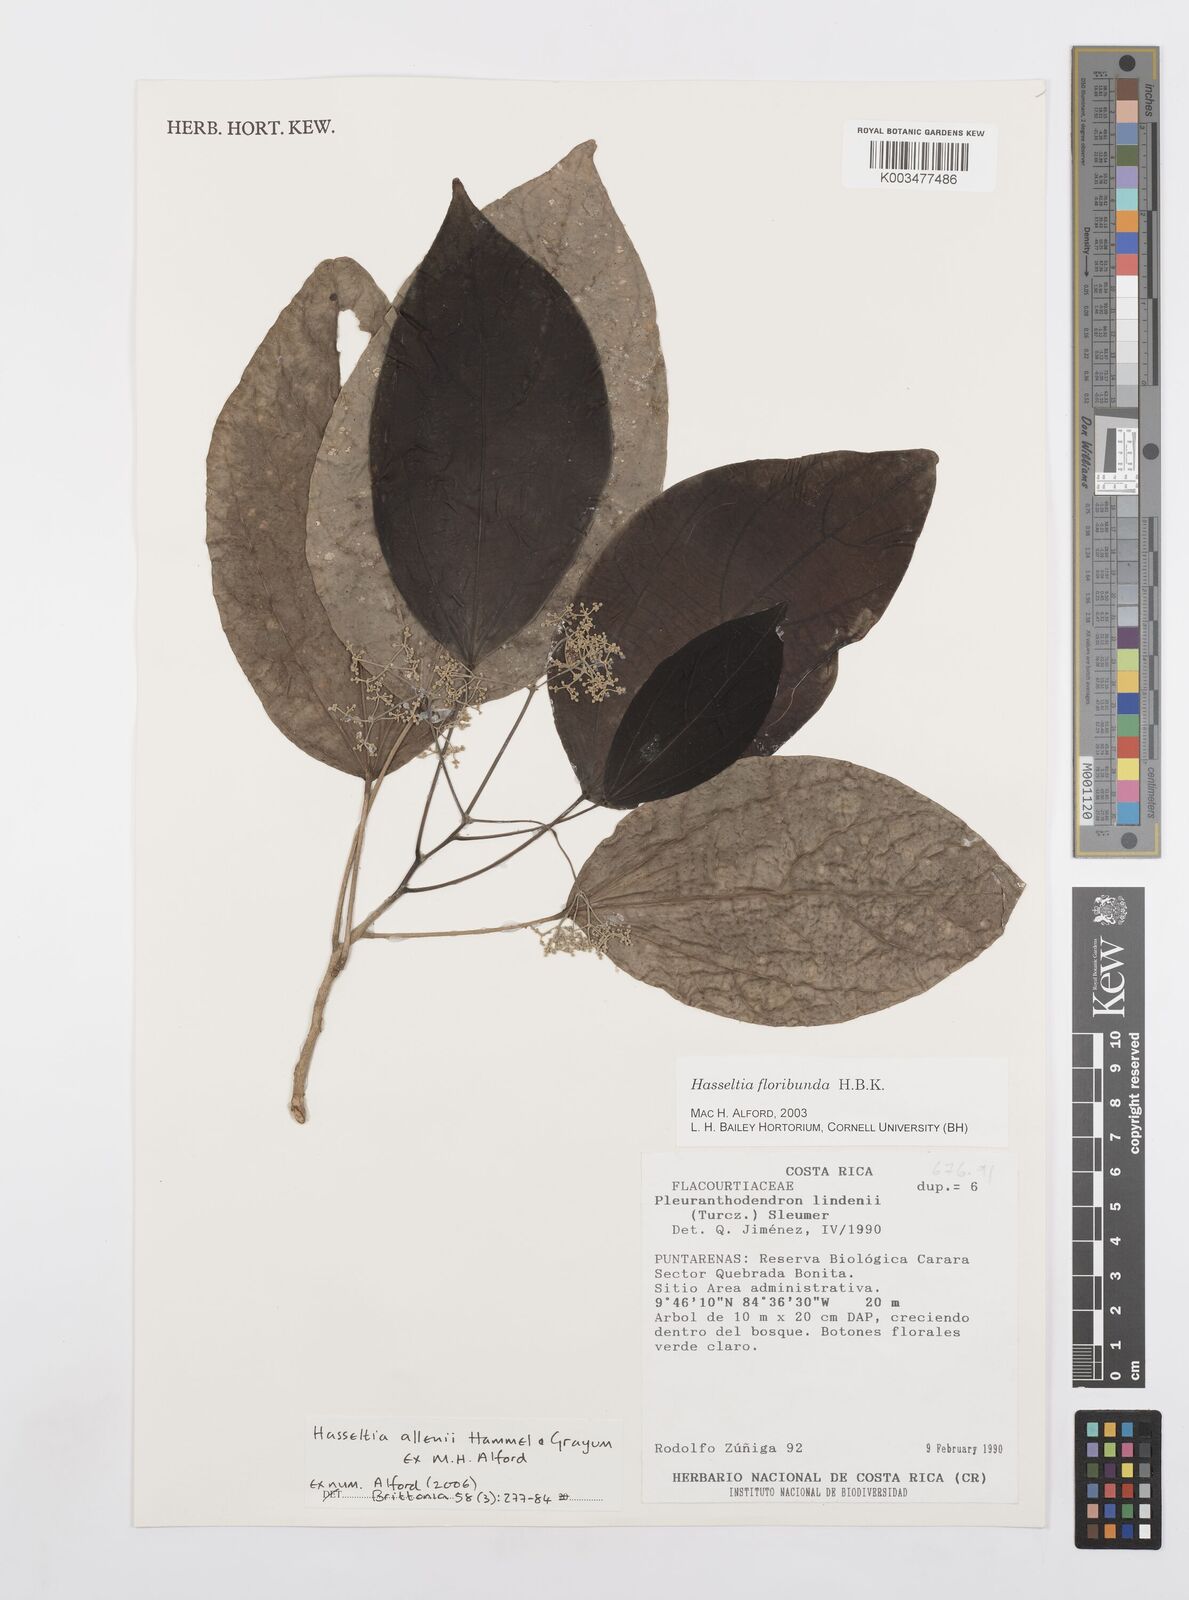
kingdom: Plantae
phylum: Tracheophyta
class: Magnoliopsida
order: Malpighiales
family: Salicaceae
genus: Hasseltia
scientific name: Hasseltia allenii
